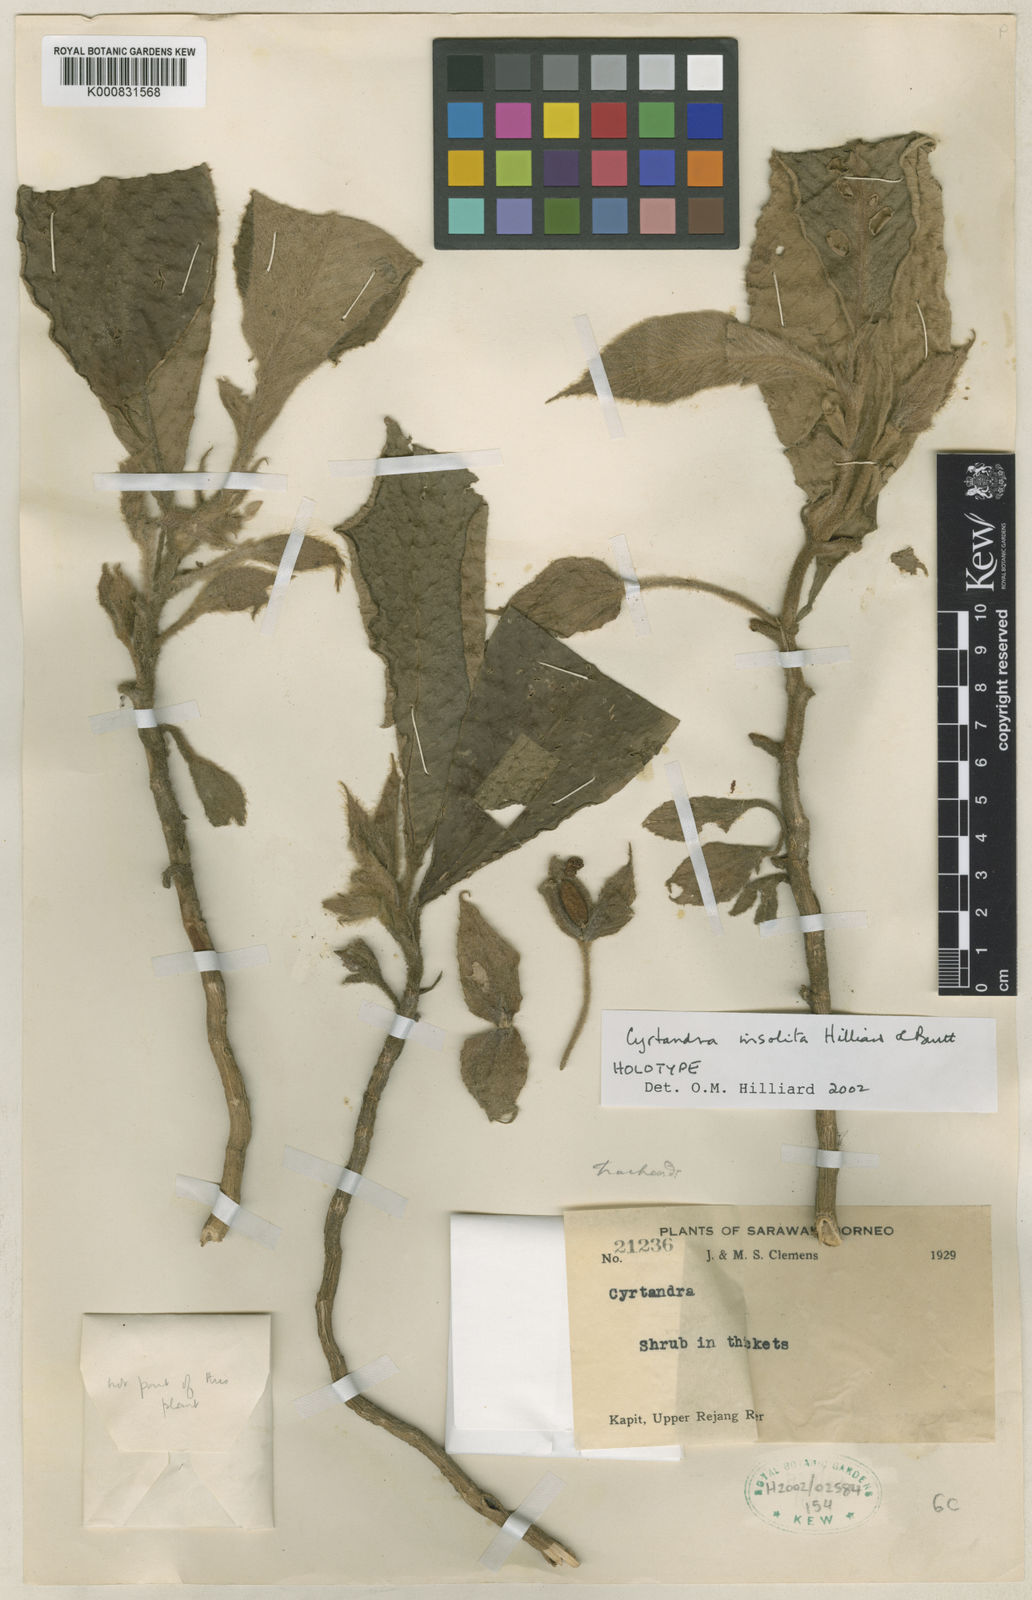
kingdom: Plantae
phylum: Tracheophyta
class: Magnoliopsida
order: Lamiales
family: Gesneriaceae
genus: Cyrtandra
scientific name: Cyrtandra insolita
